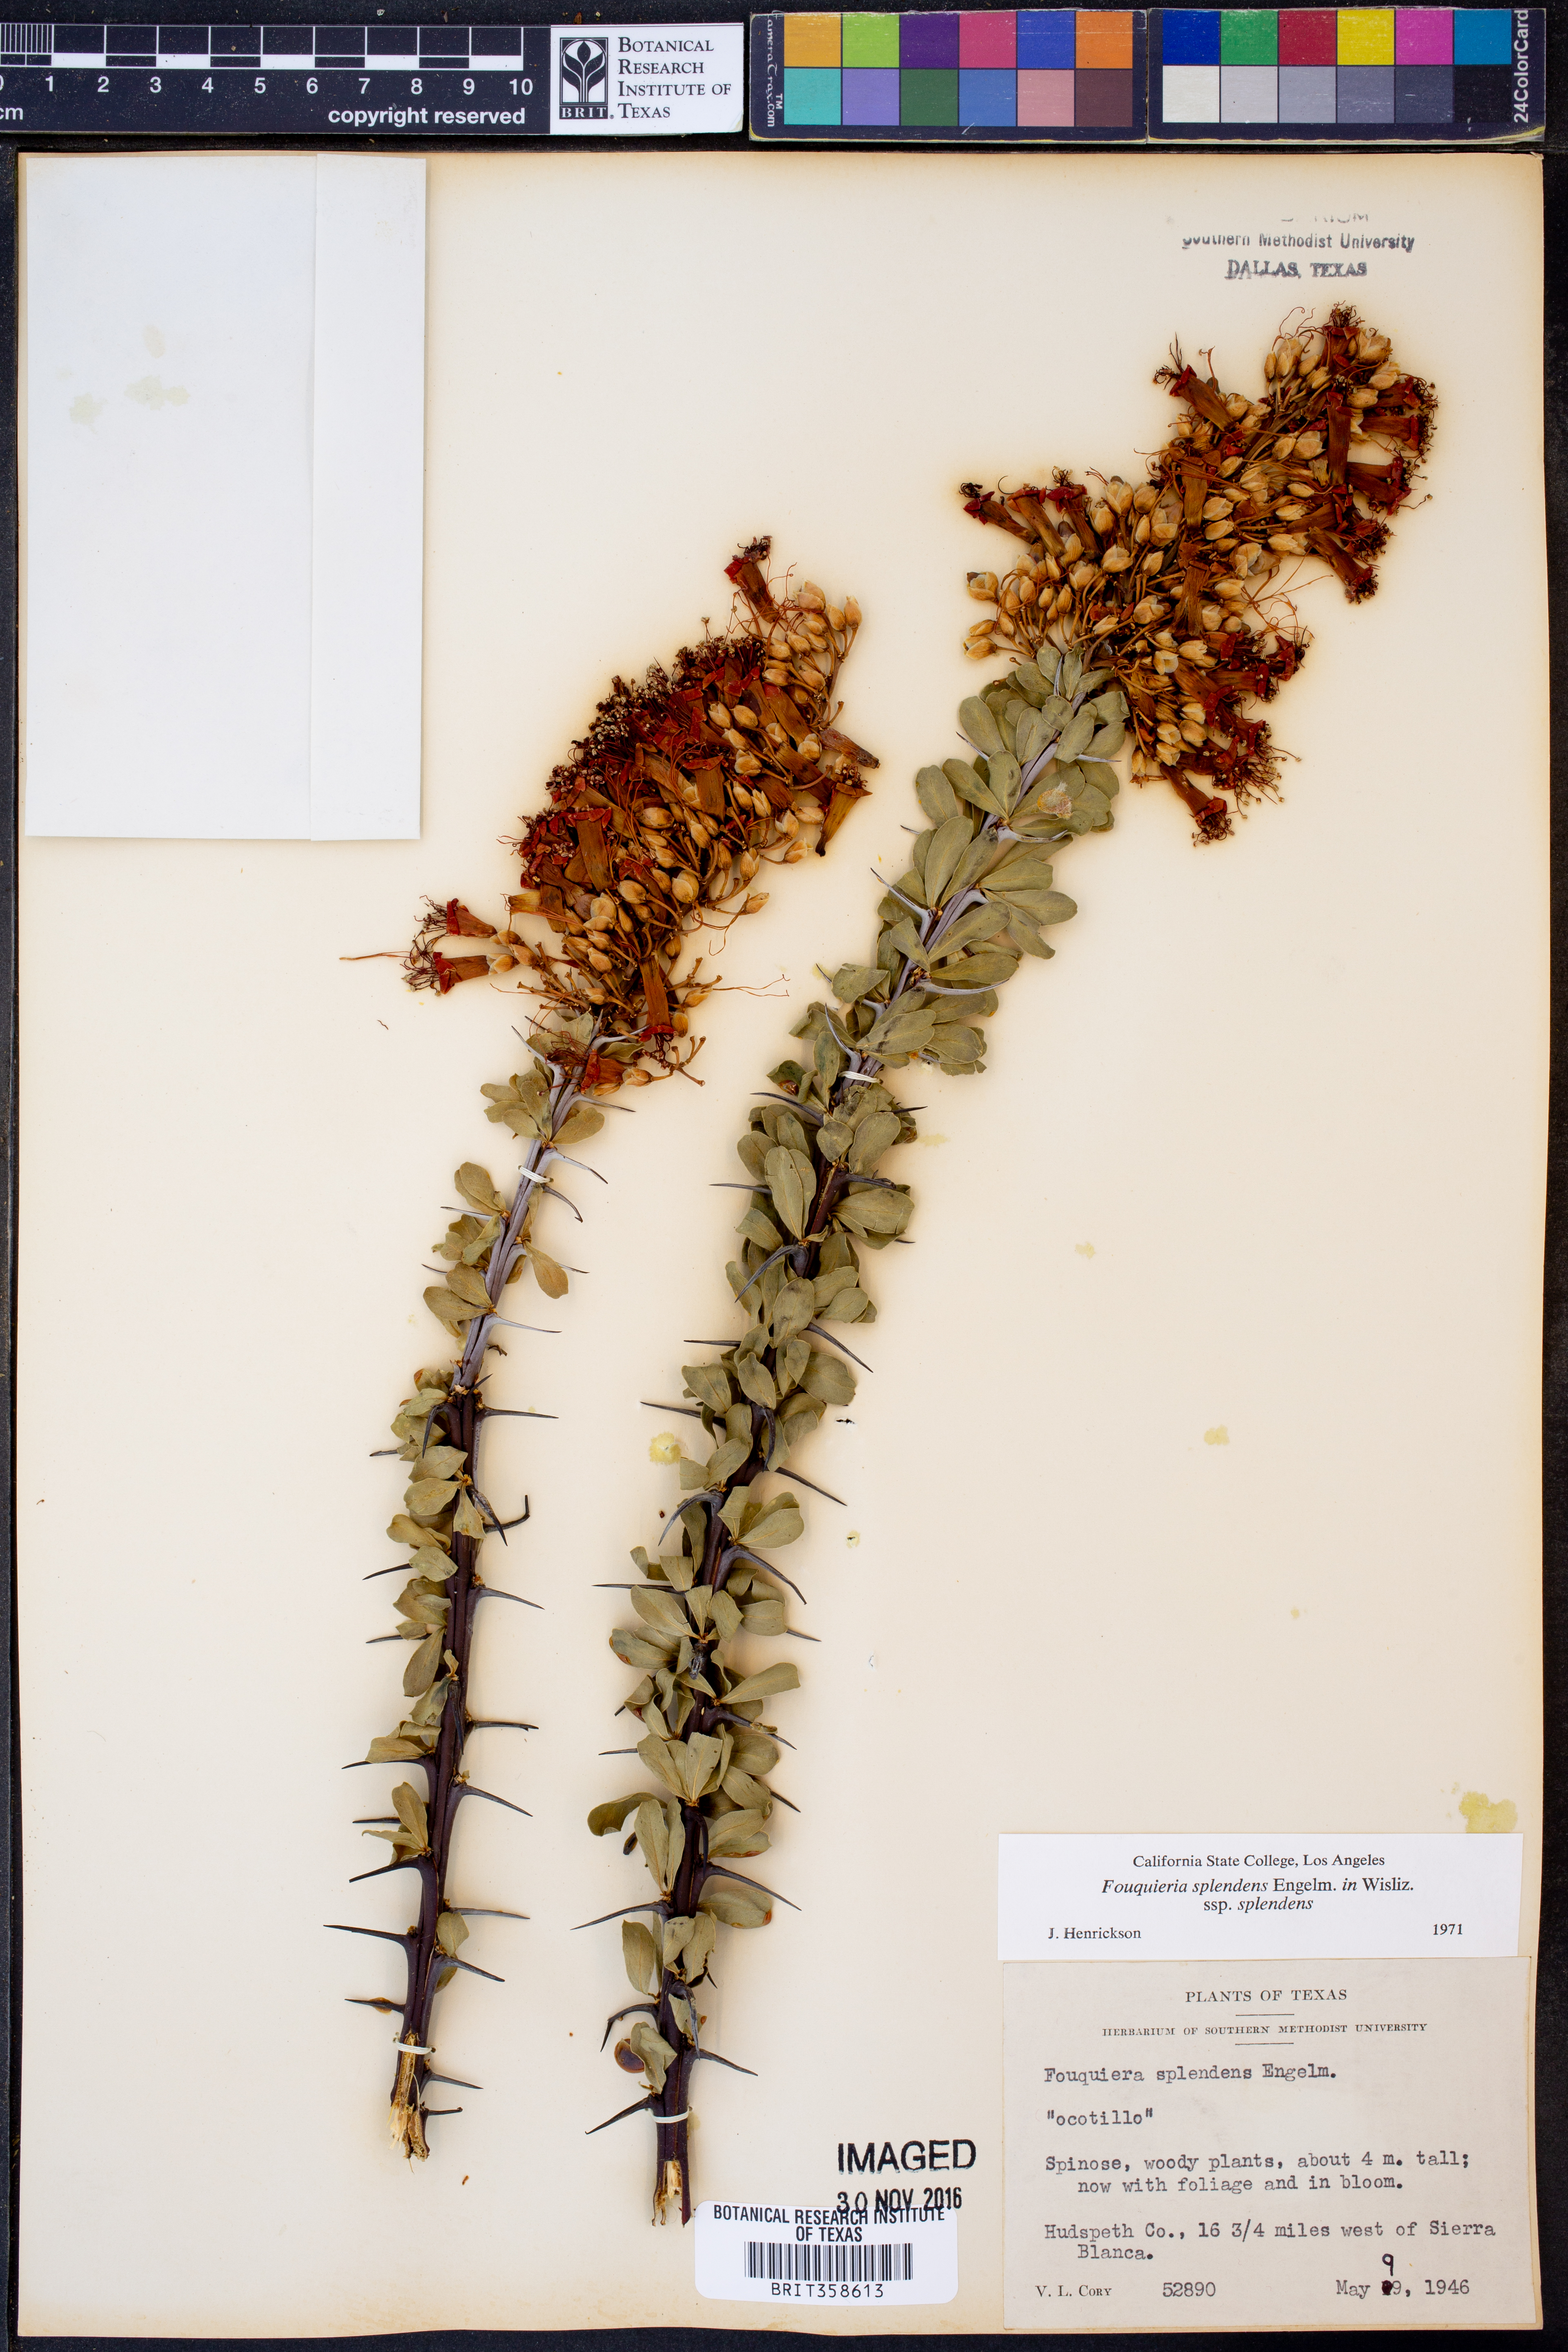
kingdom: Plantae
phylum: Tracheophyta
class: Magnoliopsida
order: Ericales
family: Fouquieriaceae
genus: Fouquieria
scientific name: Fouquieria splendens
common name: Vine-cactus
